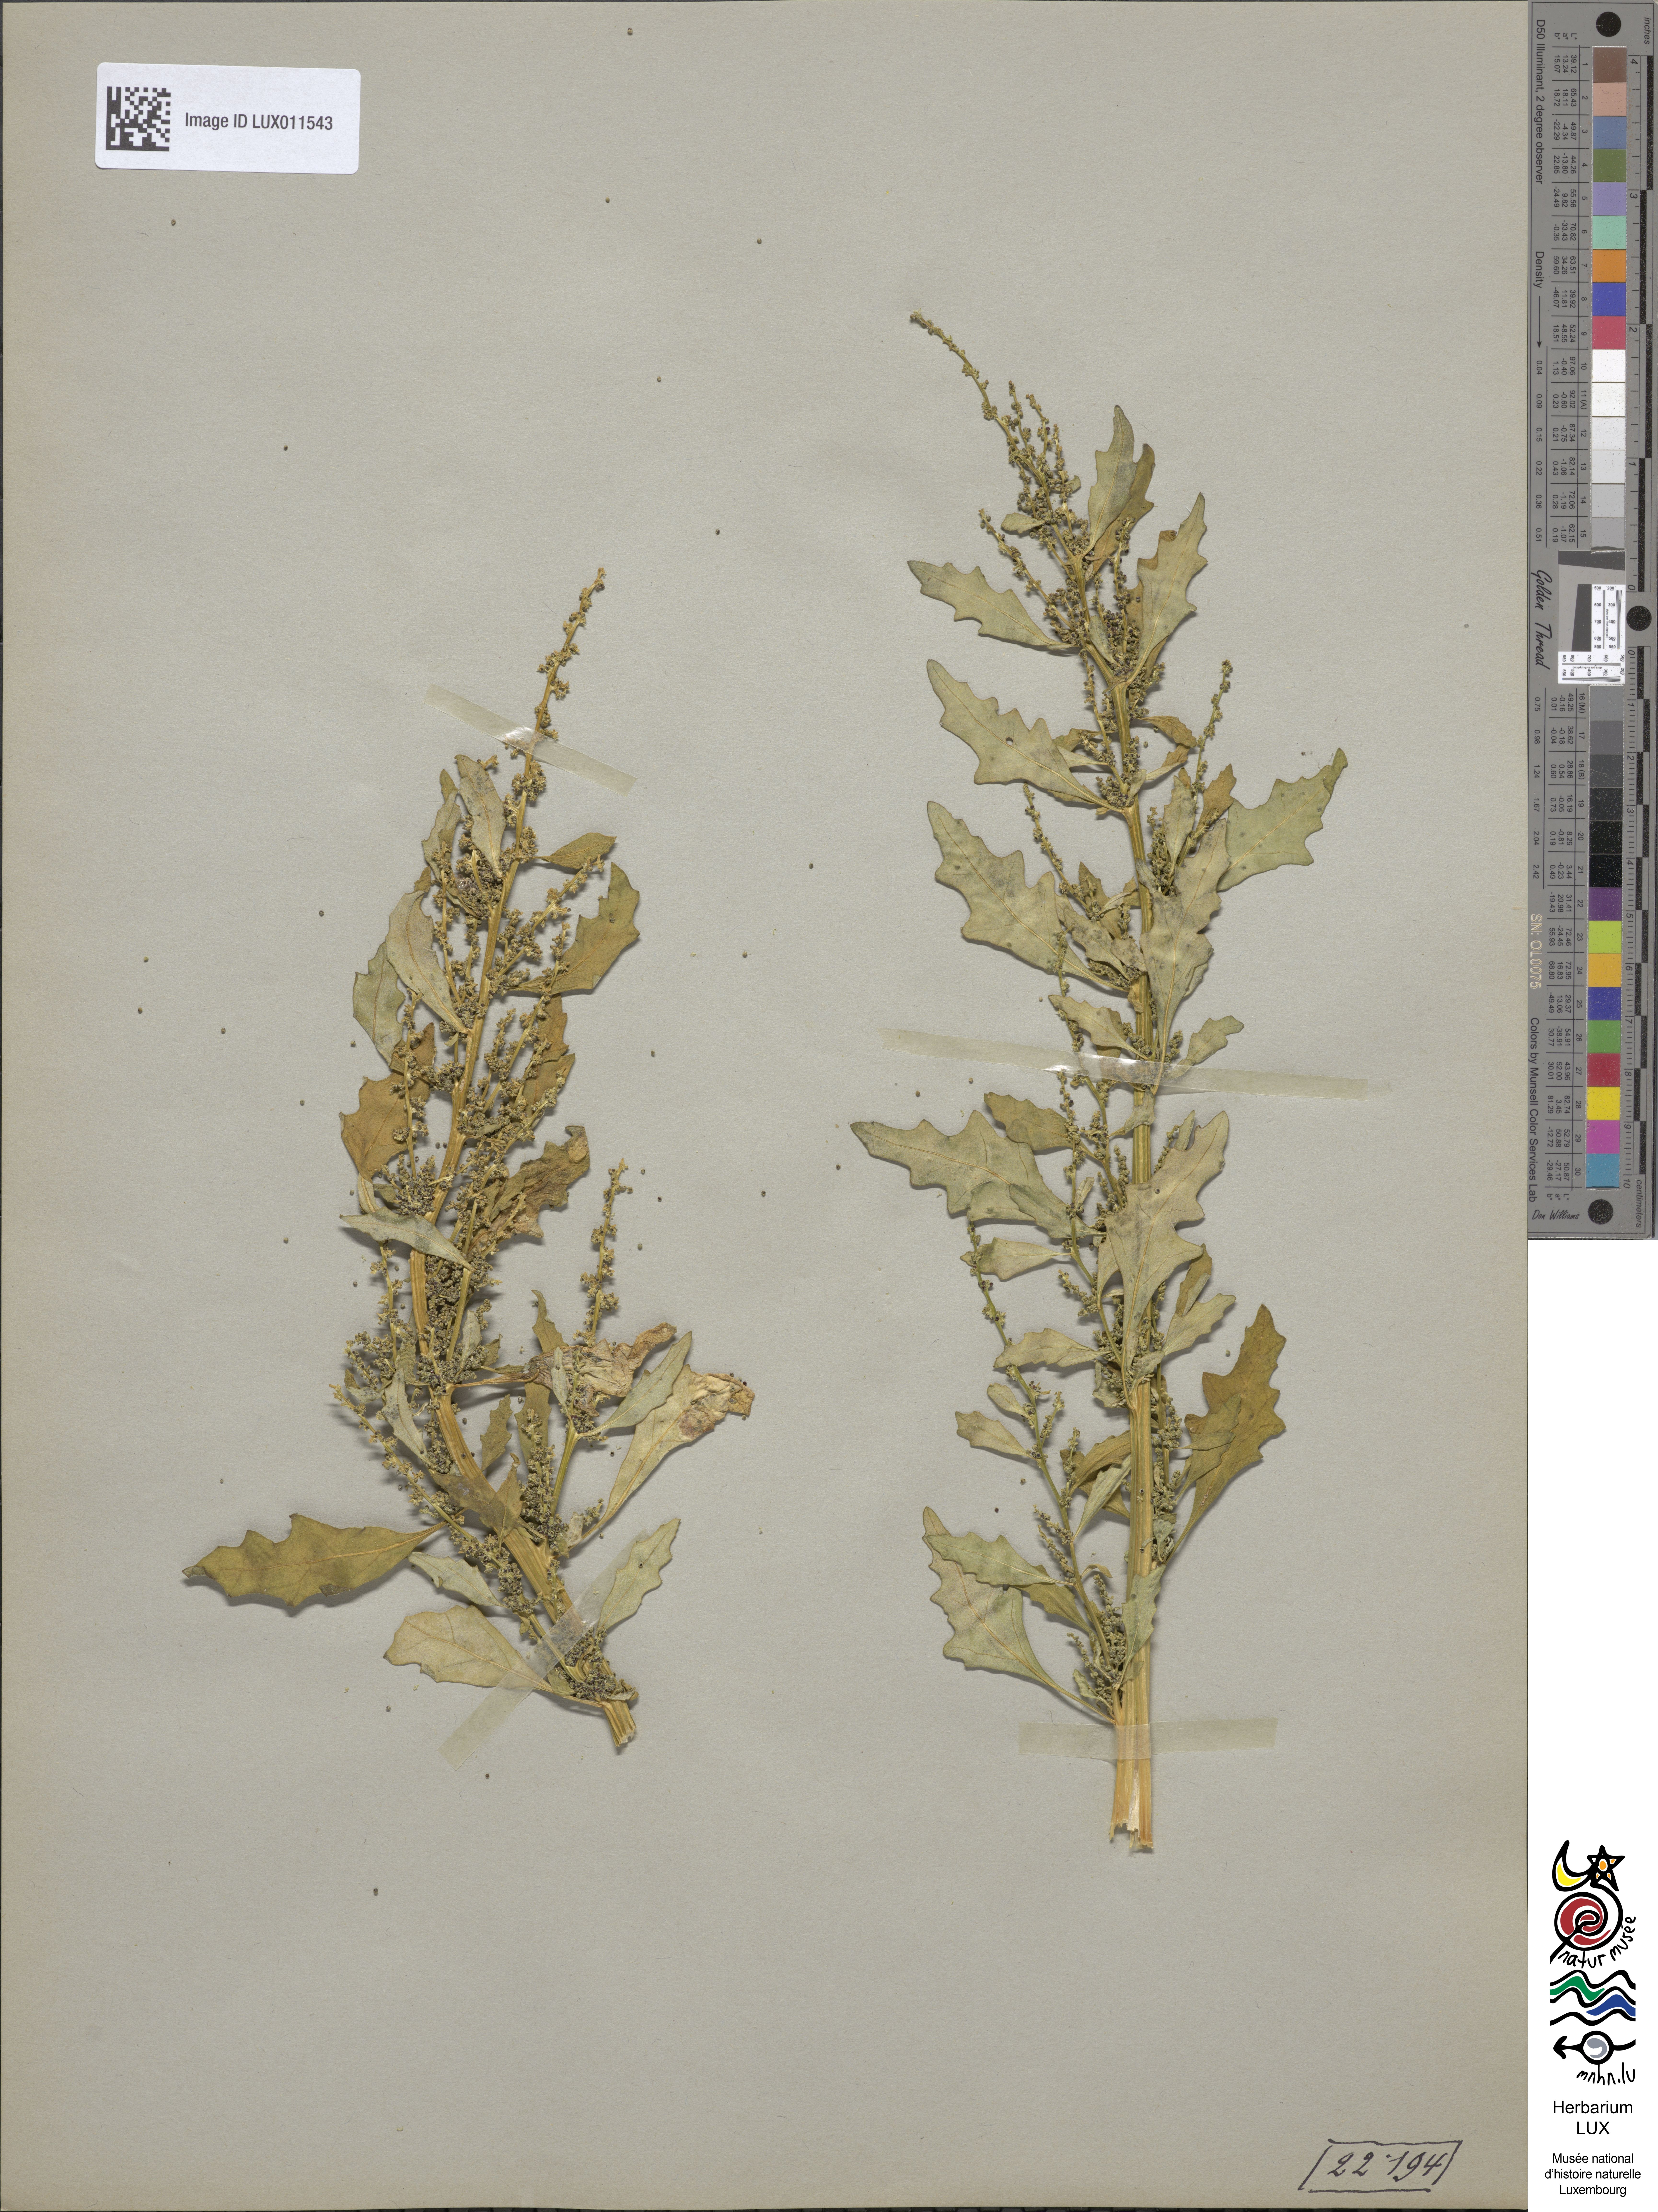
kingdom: Plantae
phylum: Tracheophyta
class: Magnoliopsida
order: Caryophyllales
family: Amaranthaceae
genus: Oxybasis
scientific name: Oxybasis glauca
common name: Glaucous goosefoot
